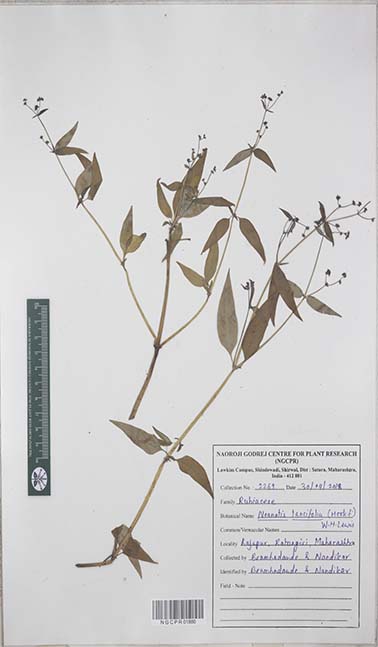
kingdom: Plantae
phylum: Tracheophyta
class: Magnoliopsida
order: Gentianales
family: Rubiaceae
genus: Neanotis
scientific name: Neanotis lancifolia
